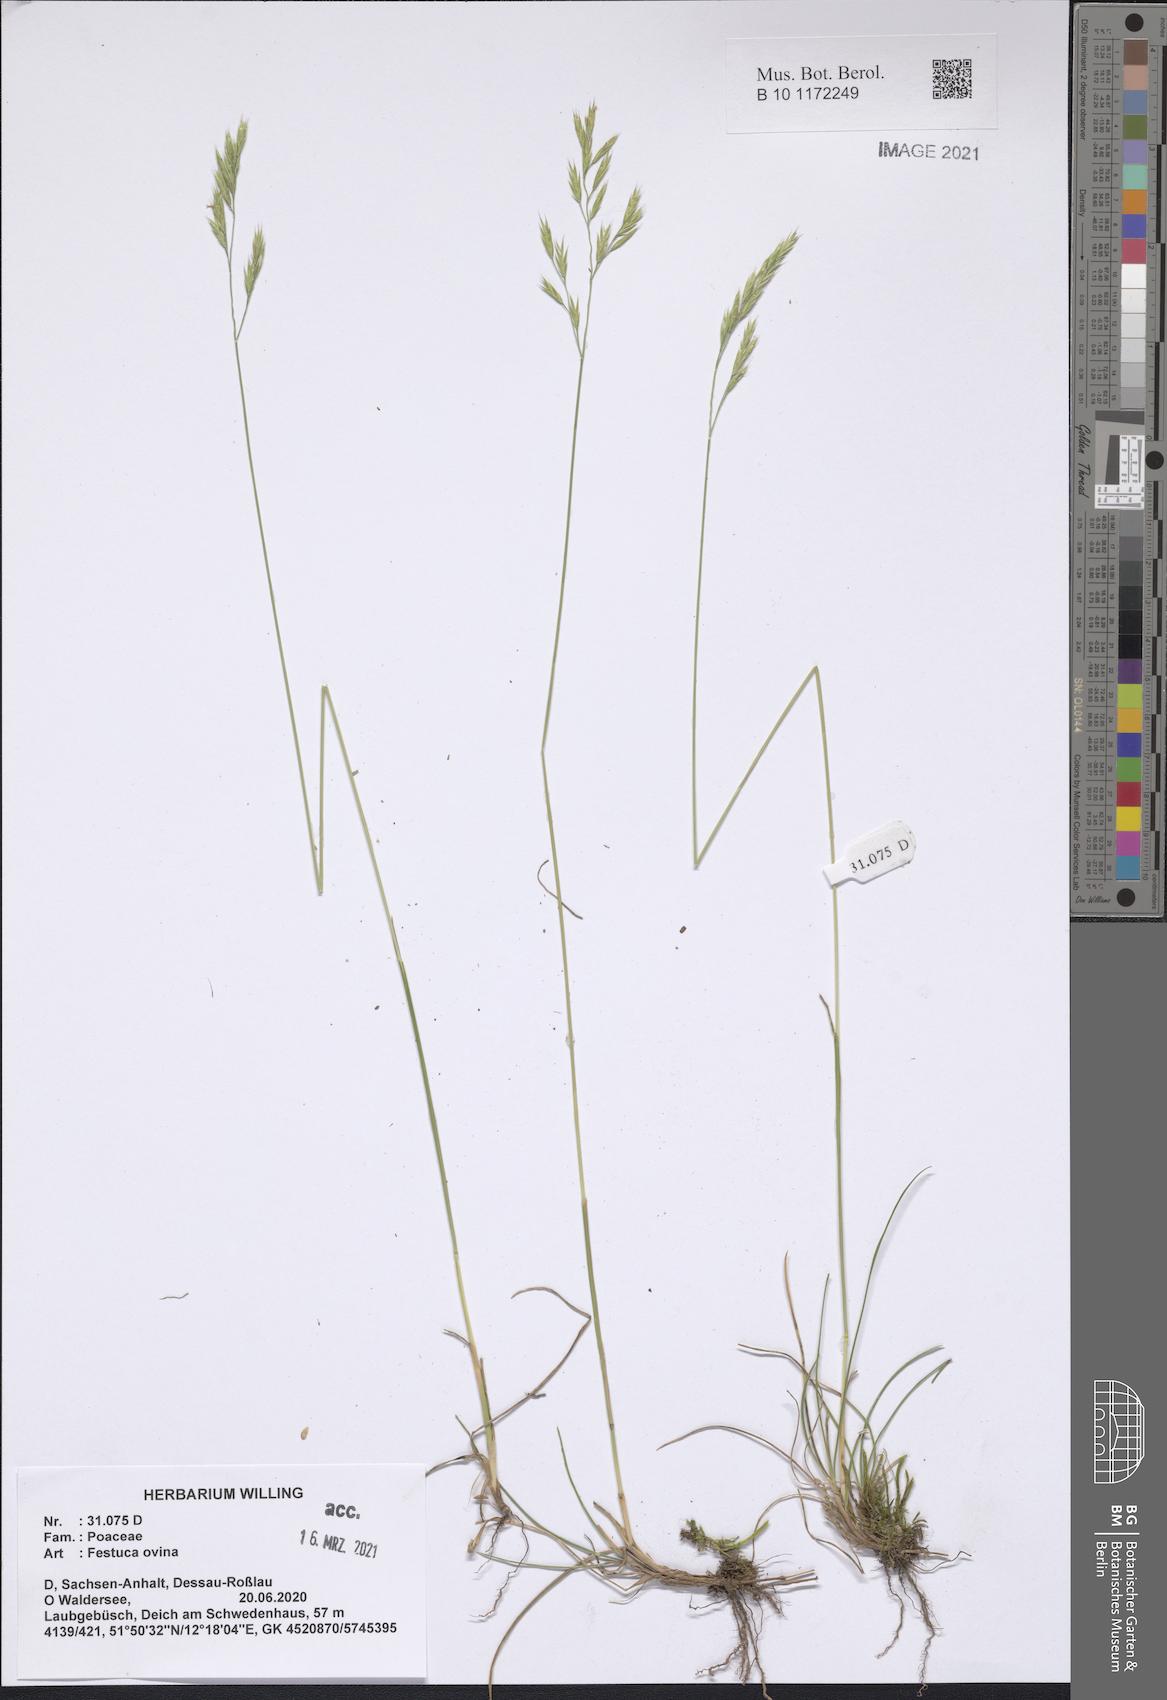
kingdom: Plantae
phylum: Tracheophyta
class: Liliopsida
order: Poales
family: Poaceae
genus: Festuca
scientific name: Festuca ovina
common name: Sheep fescue
